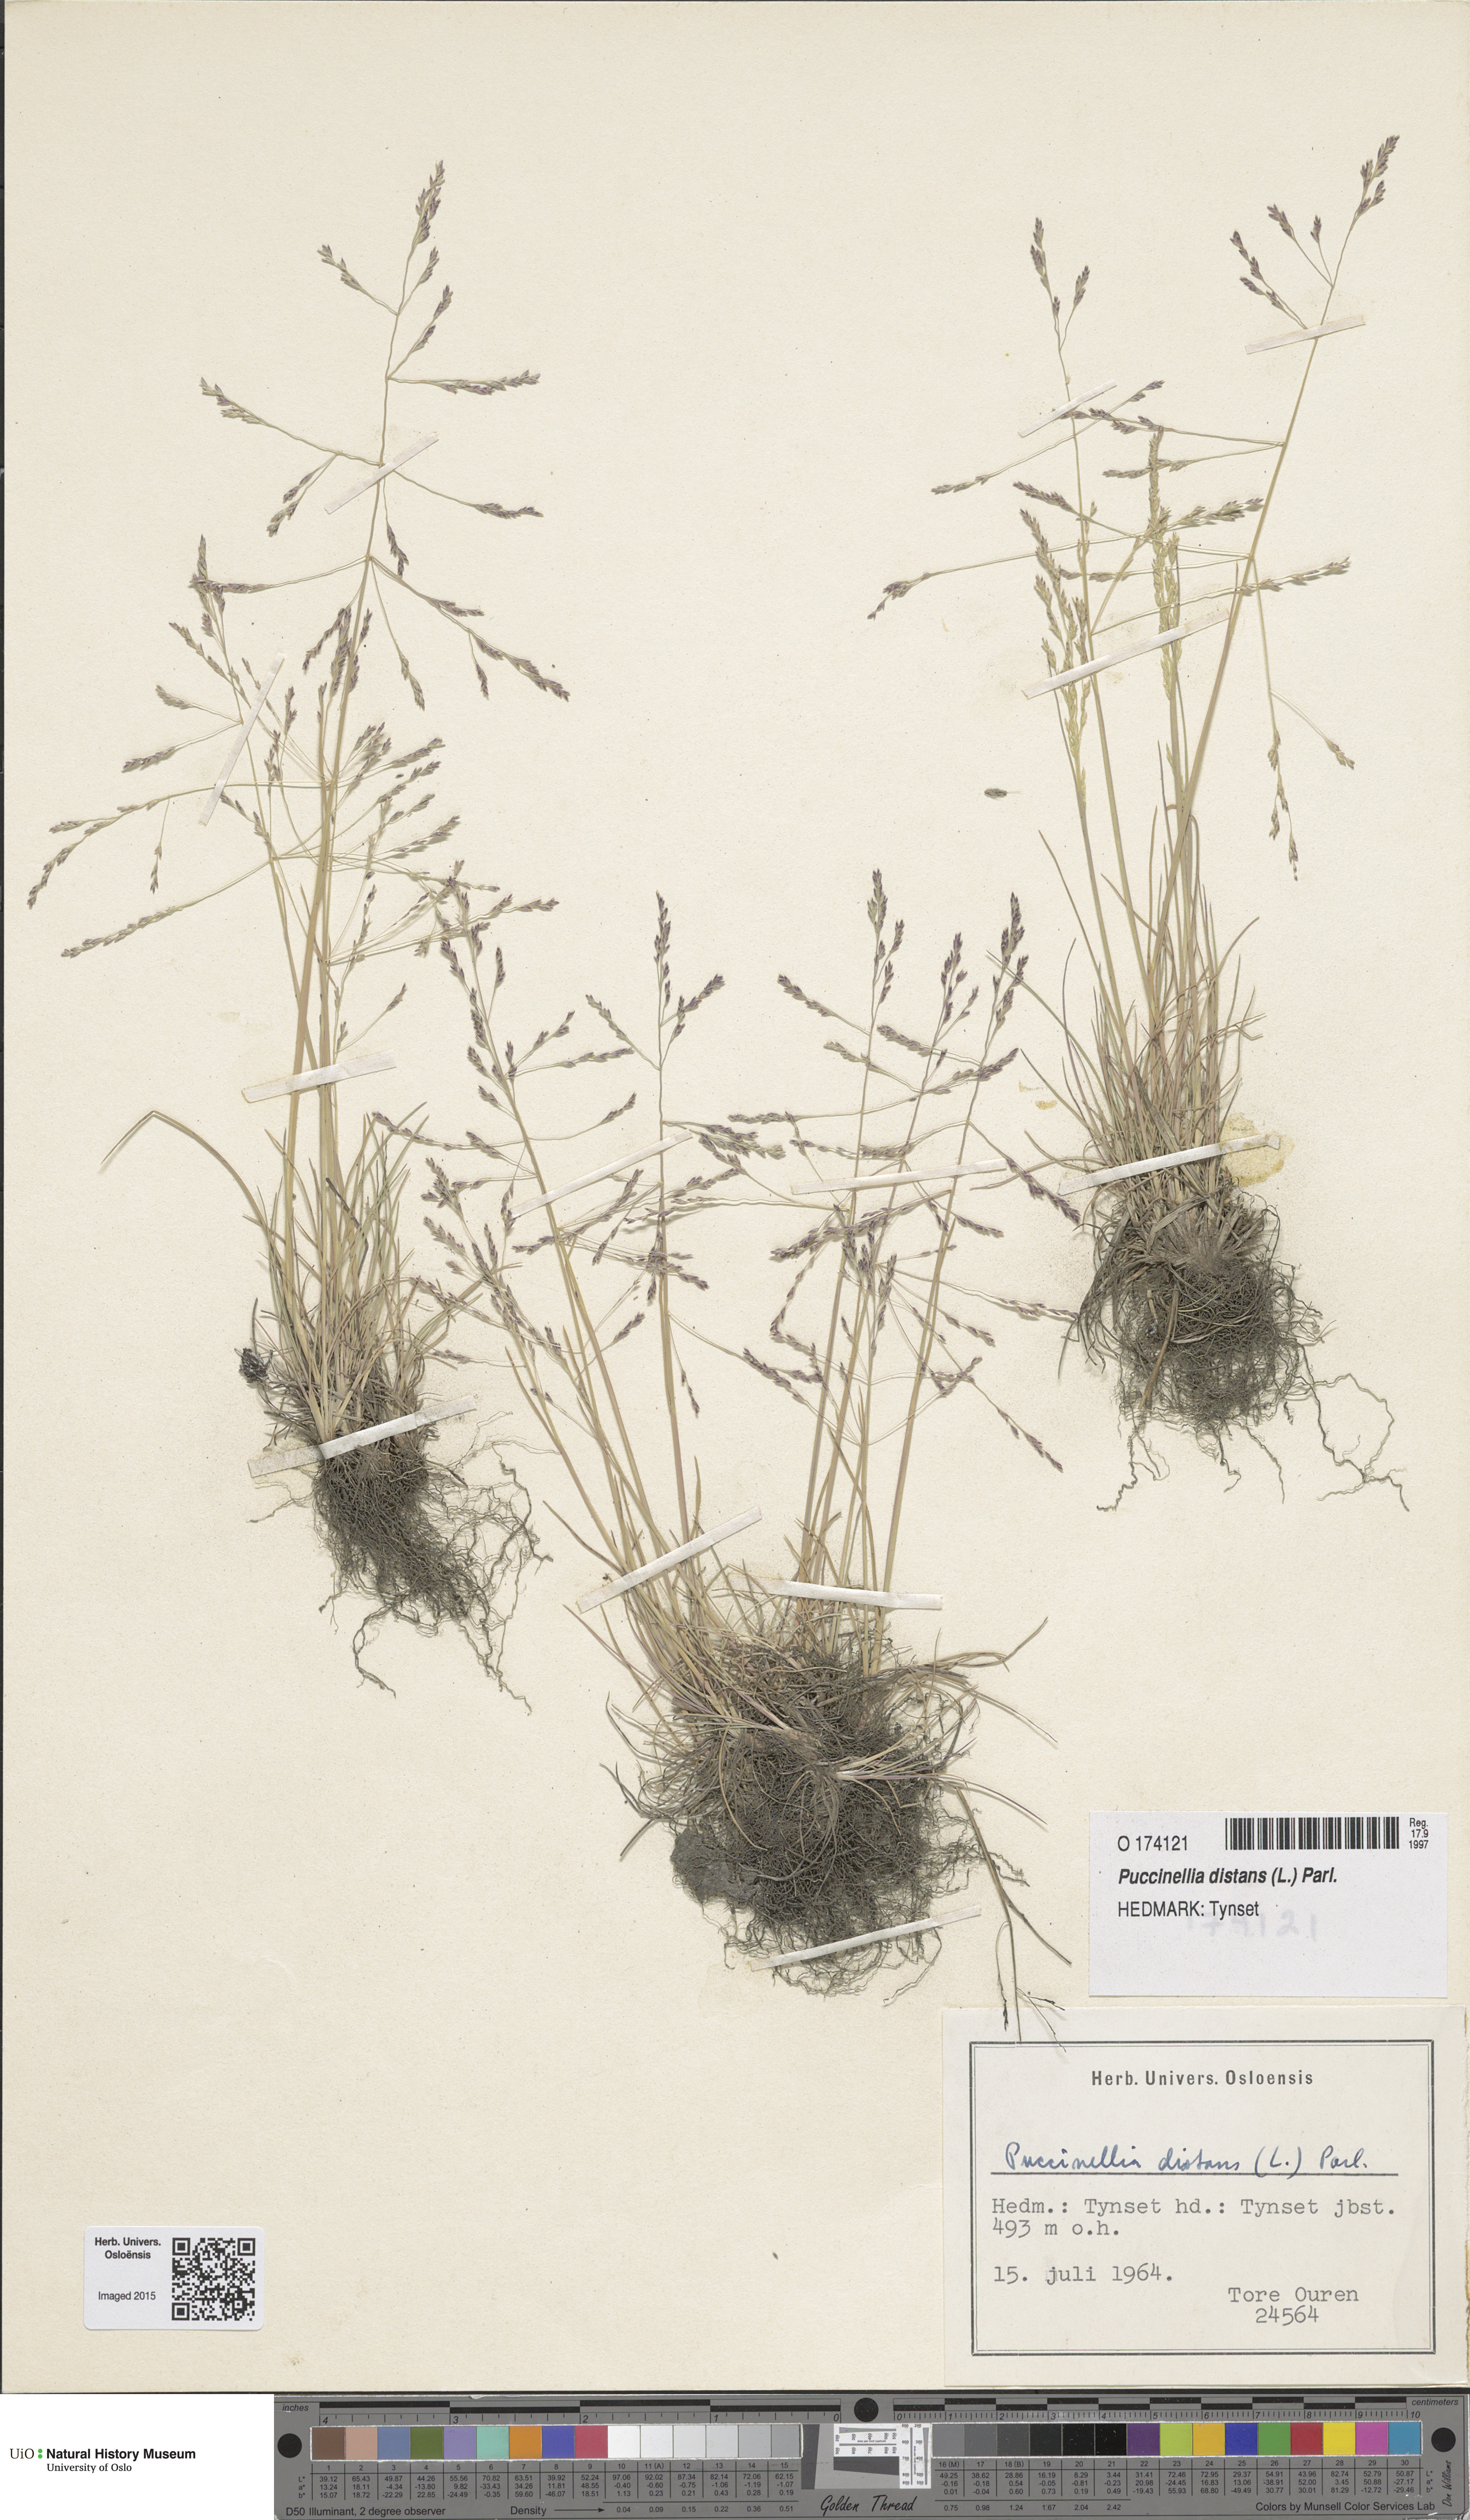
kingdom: Plantae
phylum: Tracheophyta
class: Liliopsida
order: Poales
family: Poaceae
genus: Puccinellia
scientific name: Puccinellia distans
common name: Weeping alkaligrass
